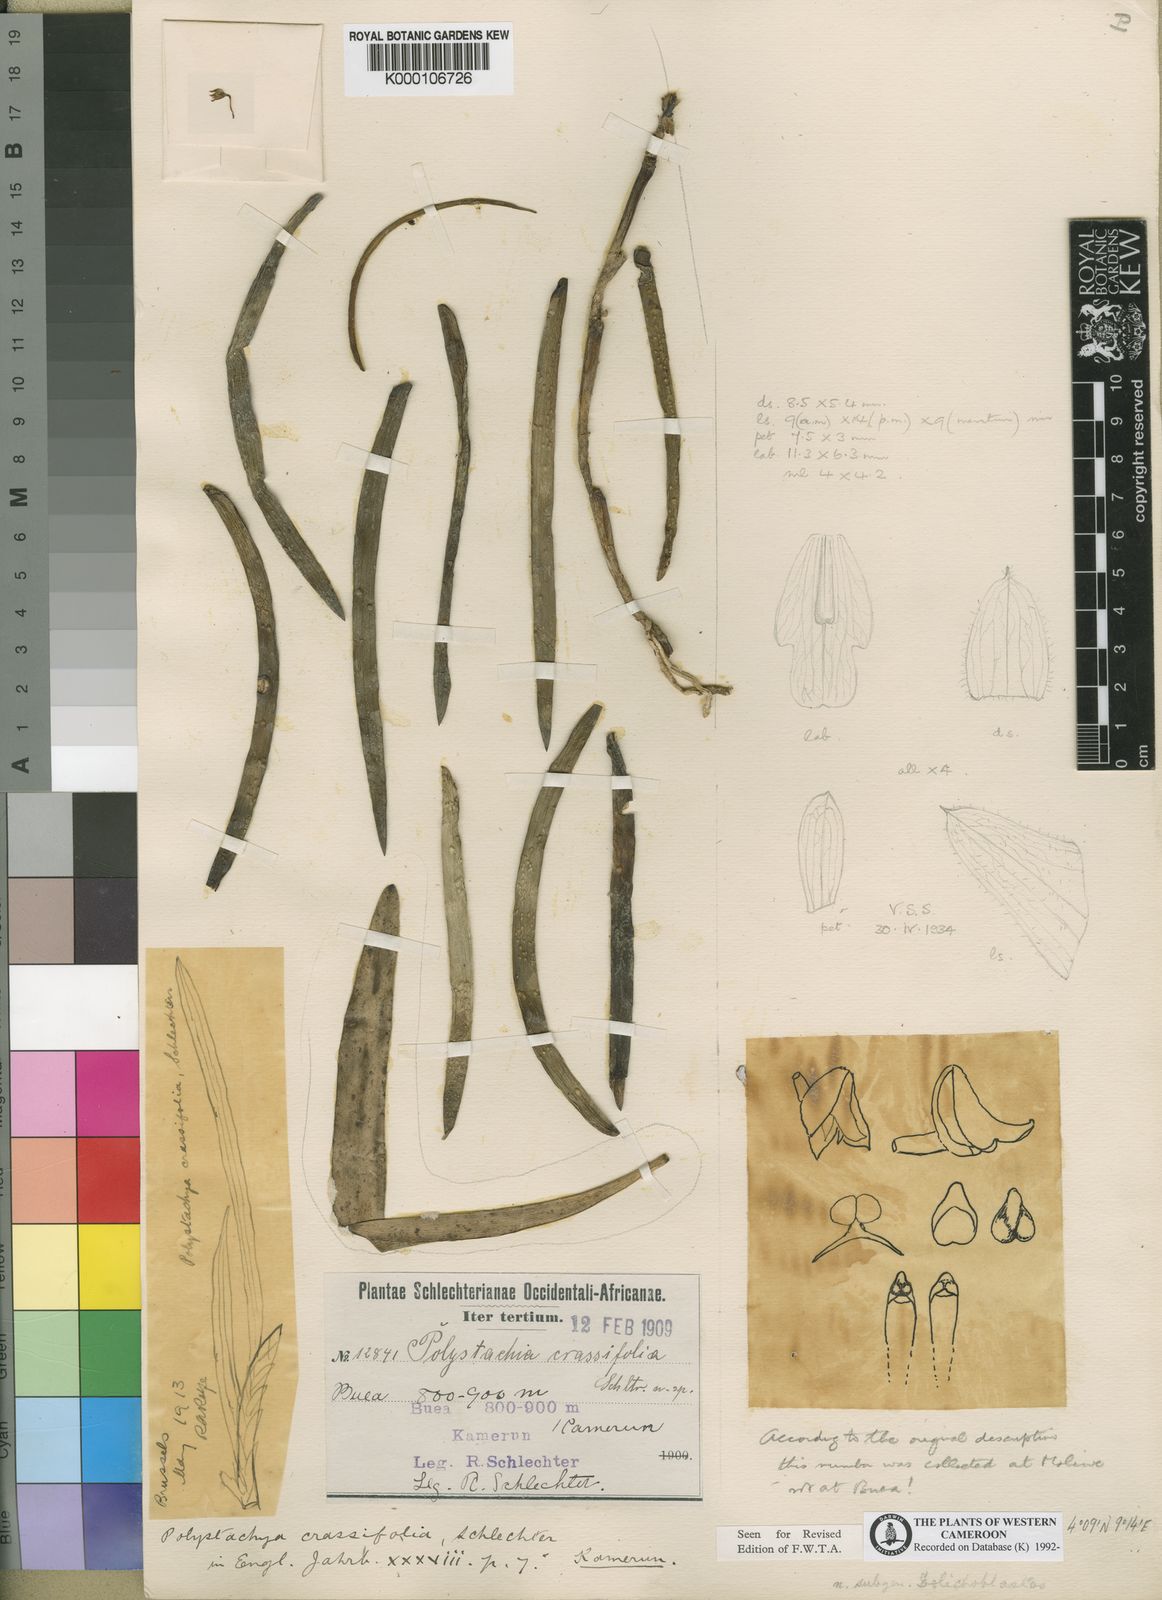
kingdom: Plantae
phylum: Tracheophyta
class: Liliopsida
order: Asparagales
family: Orchidaceae
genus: Polystachya
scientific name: Polystachya mystacioides
